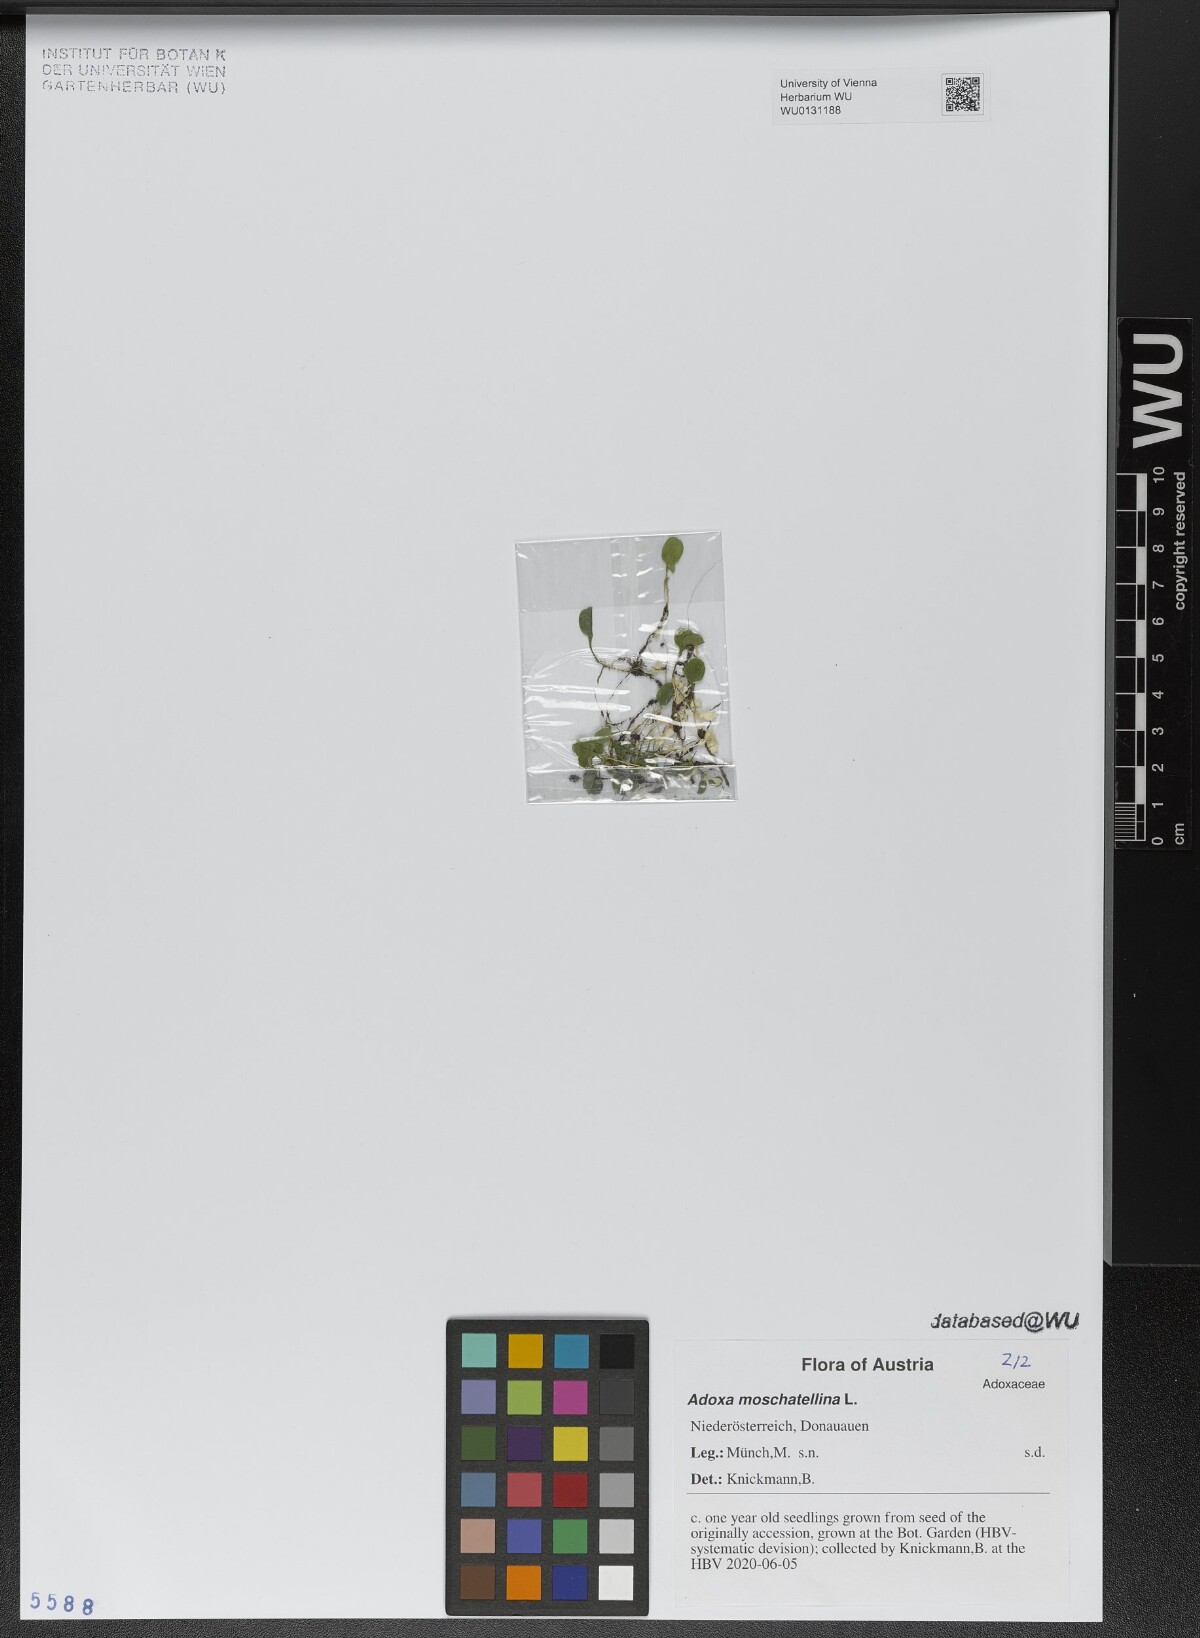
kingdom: Plantae
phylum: Tracheophyta
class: Magnoliopsida
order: Dipsacales
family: Viburnaceae
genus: Adoxa
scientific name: Adoxa moschatellina
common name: Moschatel
